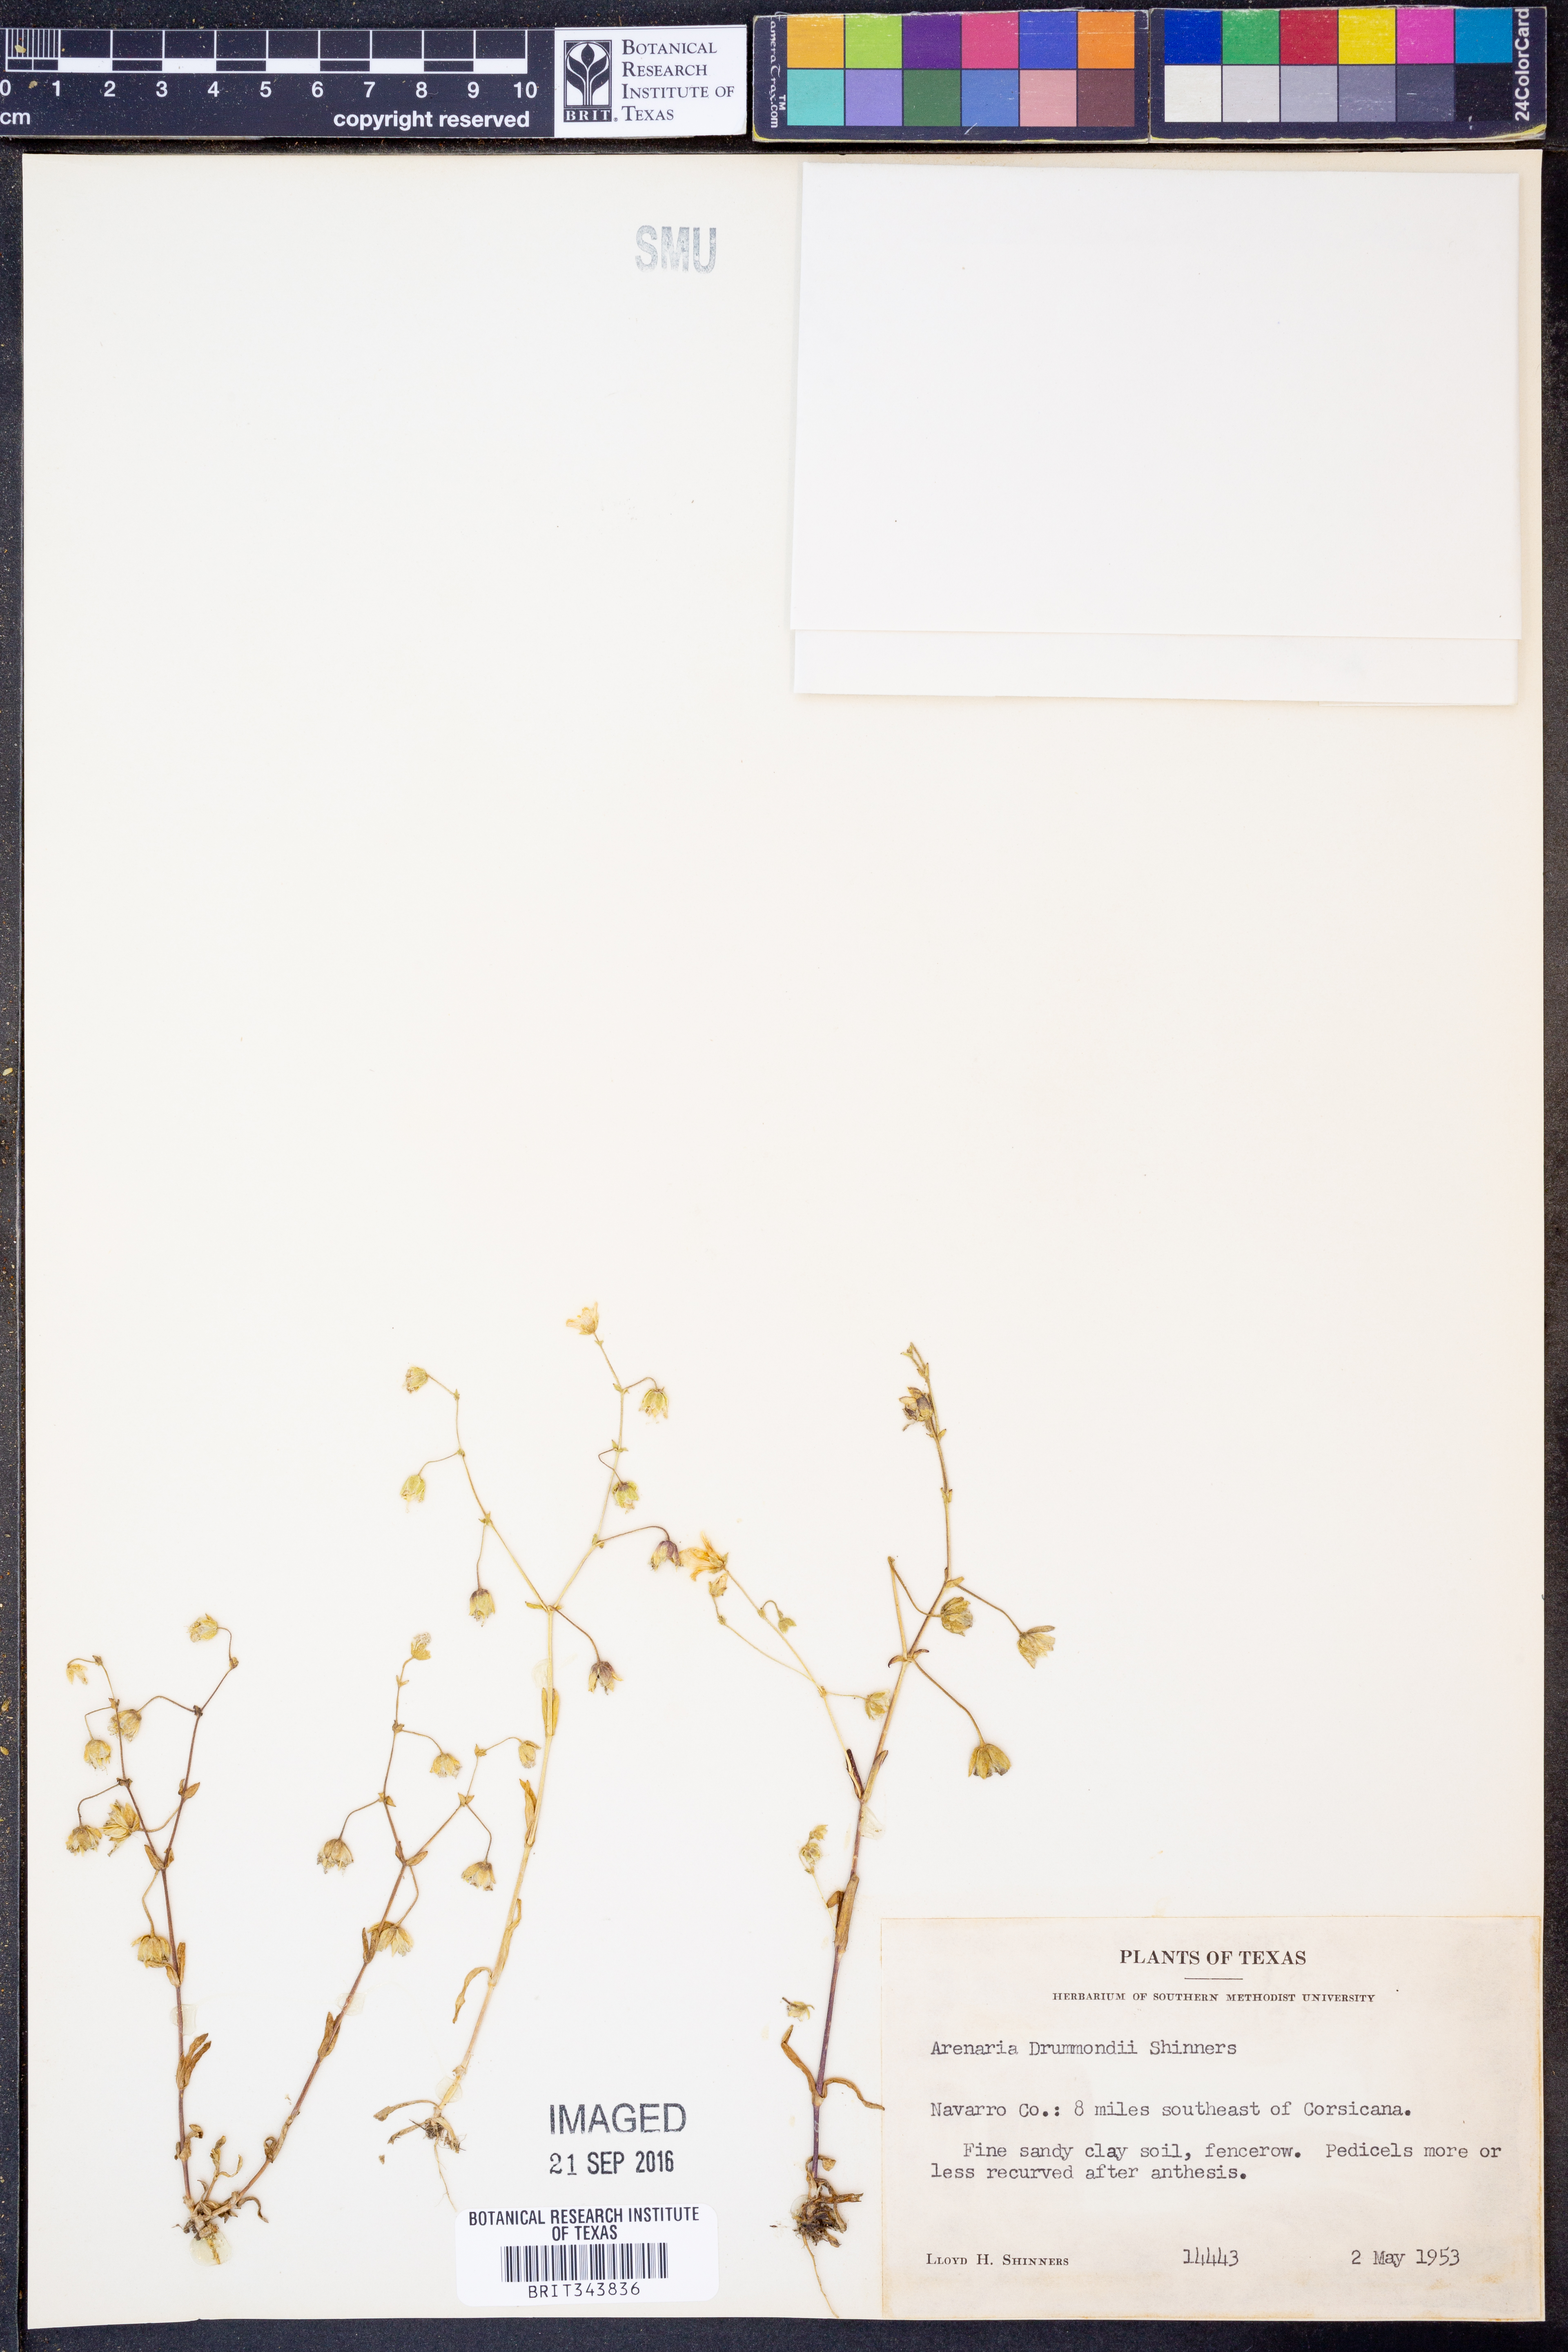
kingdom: Plantae
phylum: Tracheophyta
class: Magnoliopsida
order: Caryophyllales
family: Caryophyllaceae
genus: Geocarpon
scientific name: Geocarpon nuttallii
